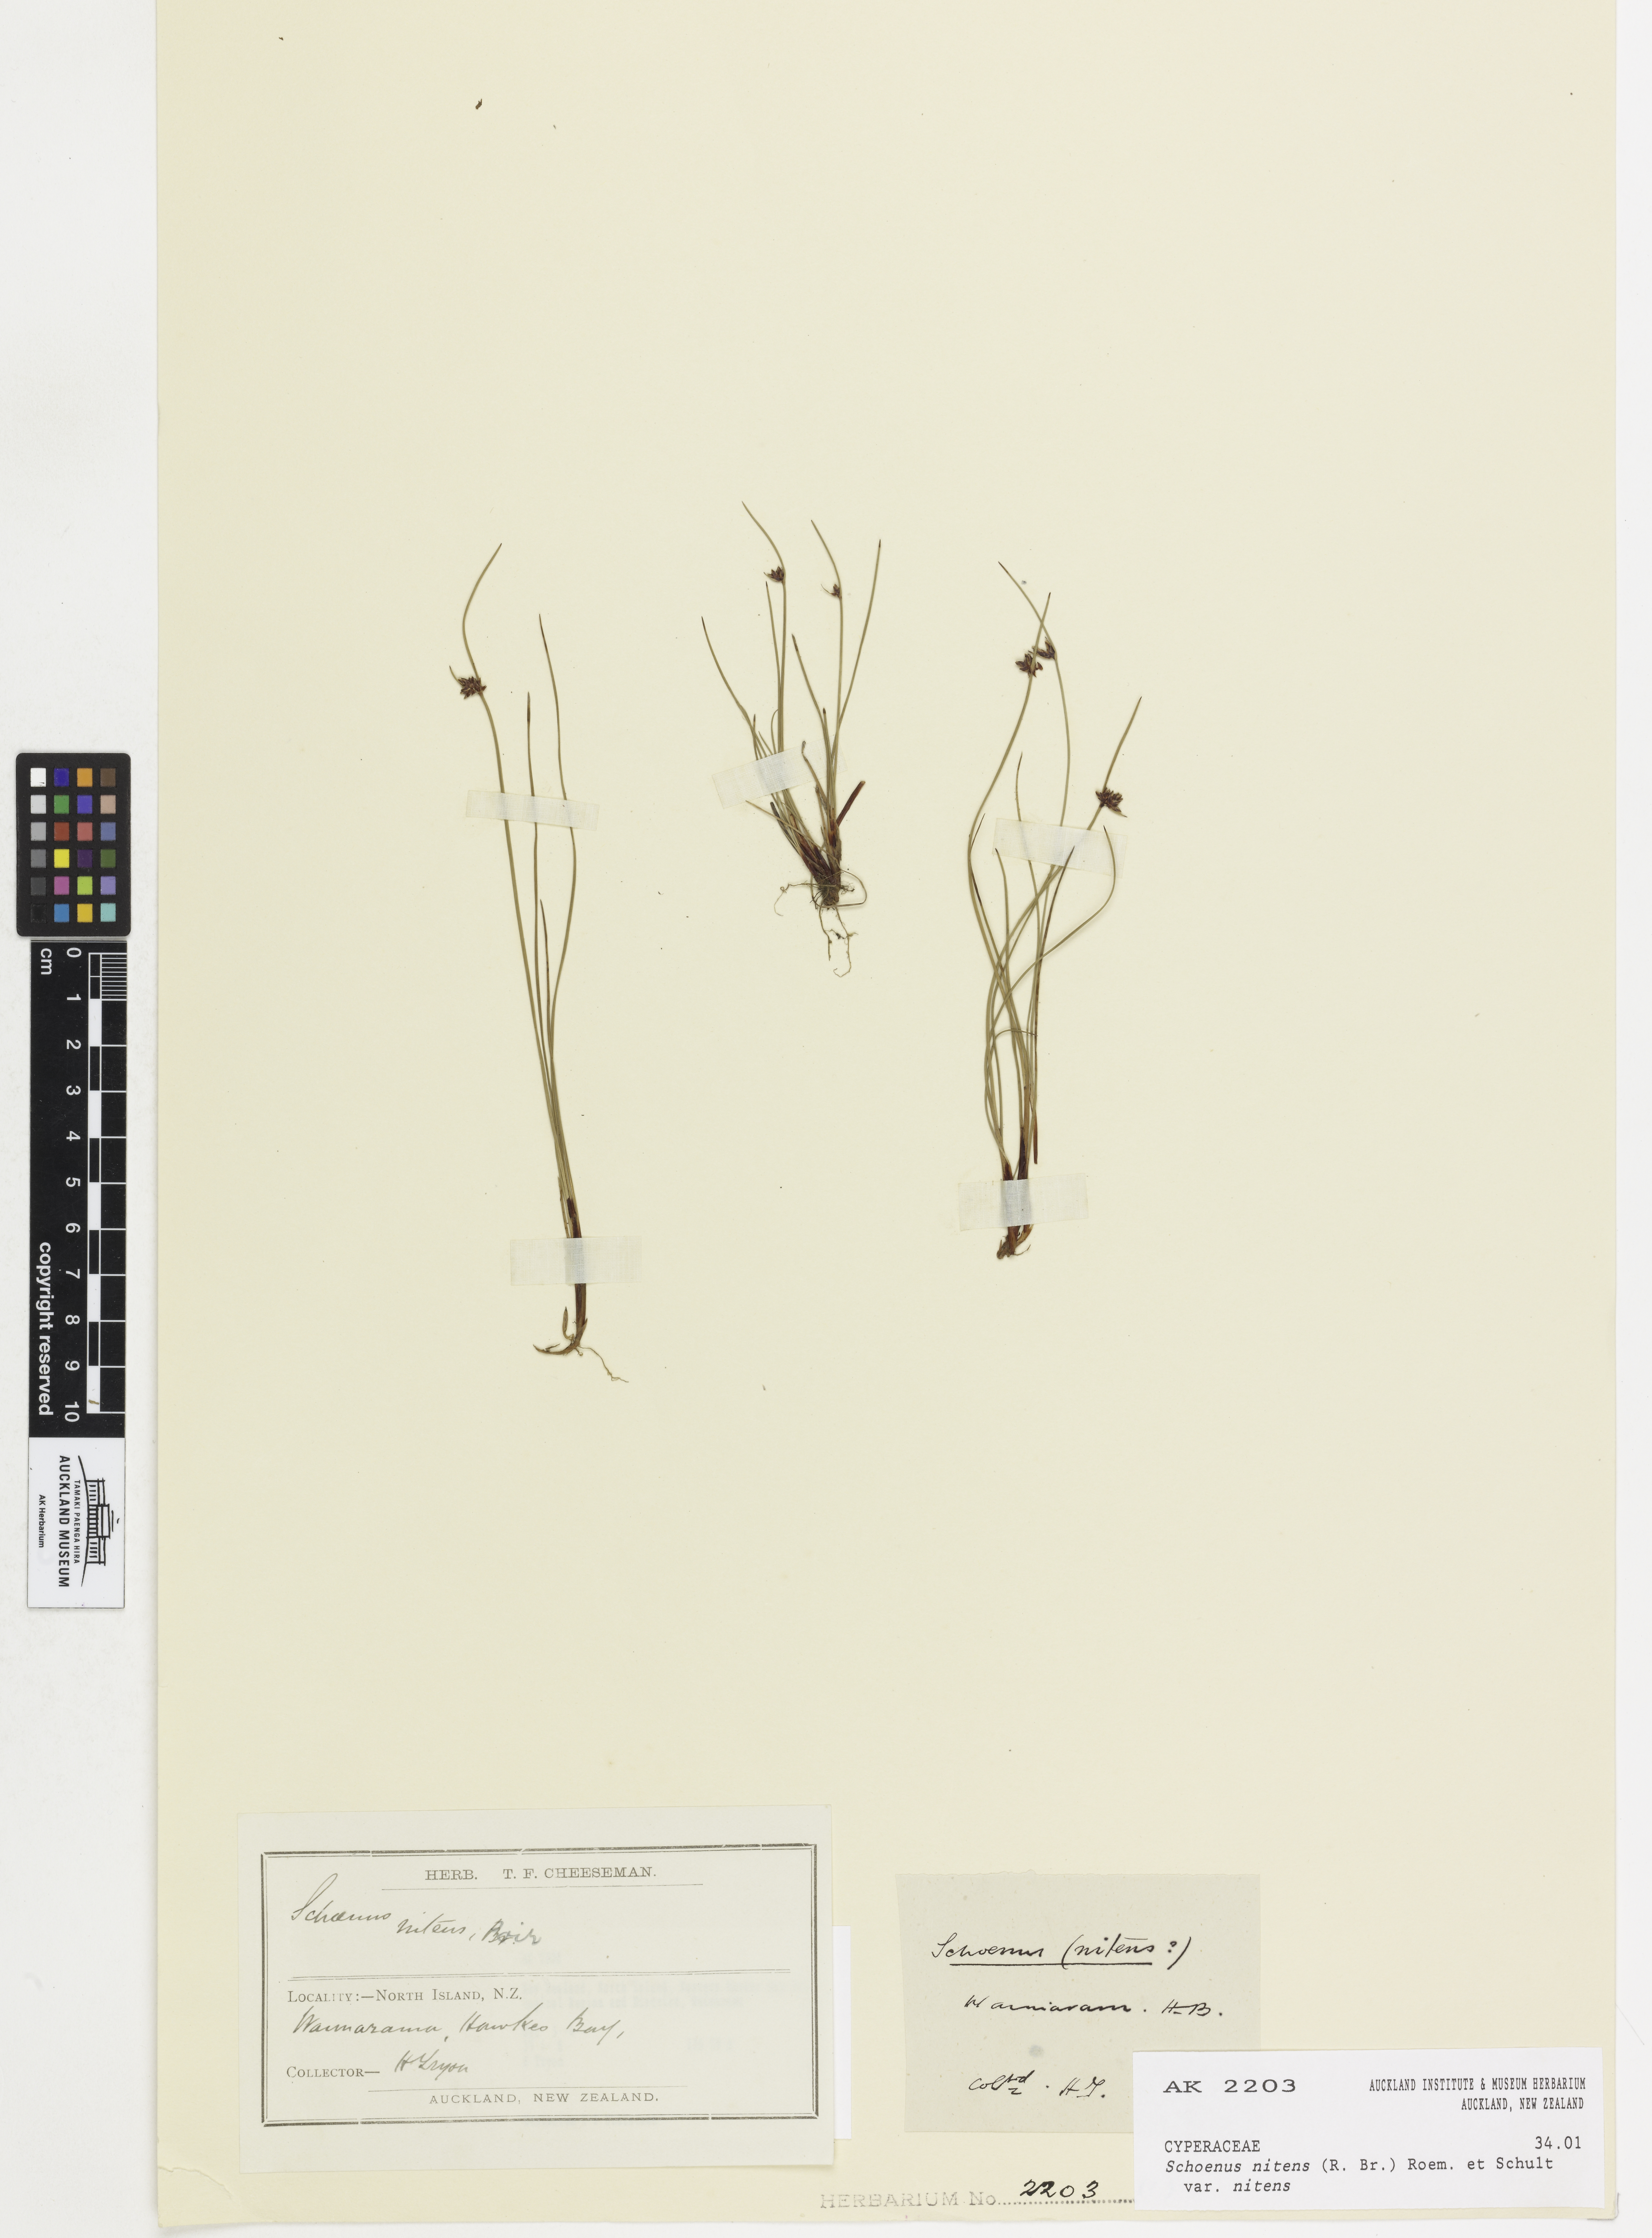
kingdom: Plantae
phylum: Tracheophyta
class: Liliopsida
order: Poales
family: Cyperaceae
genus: Schoenus
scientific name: Schoenus nitens
